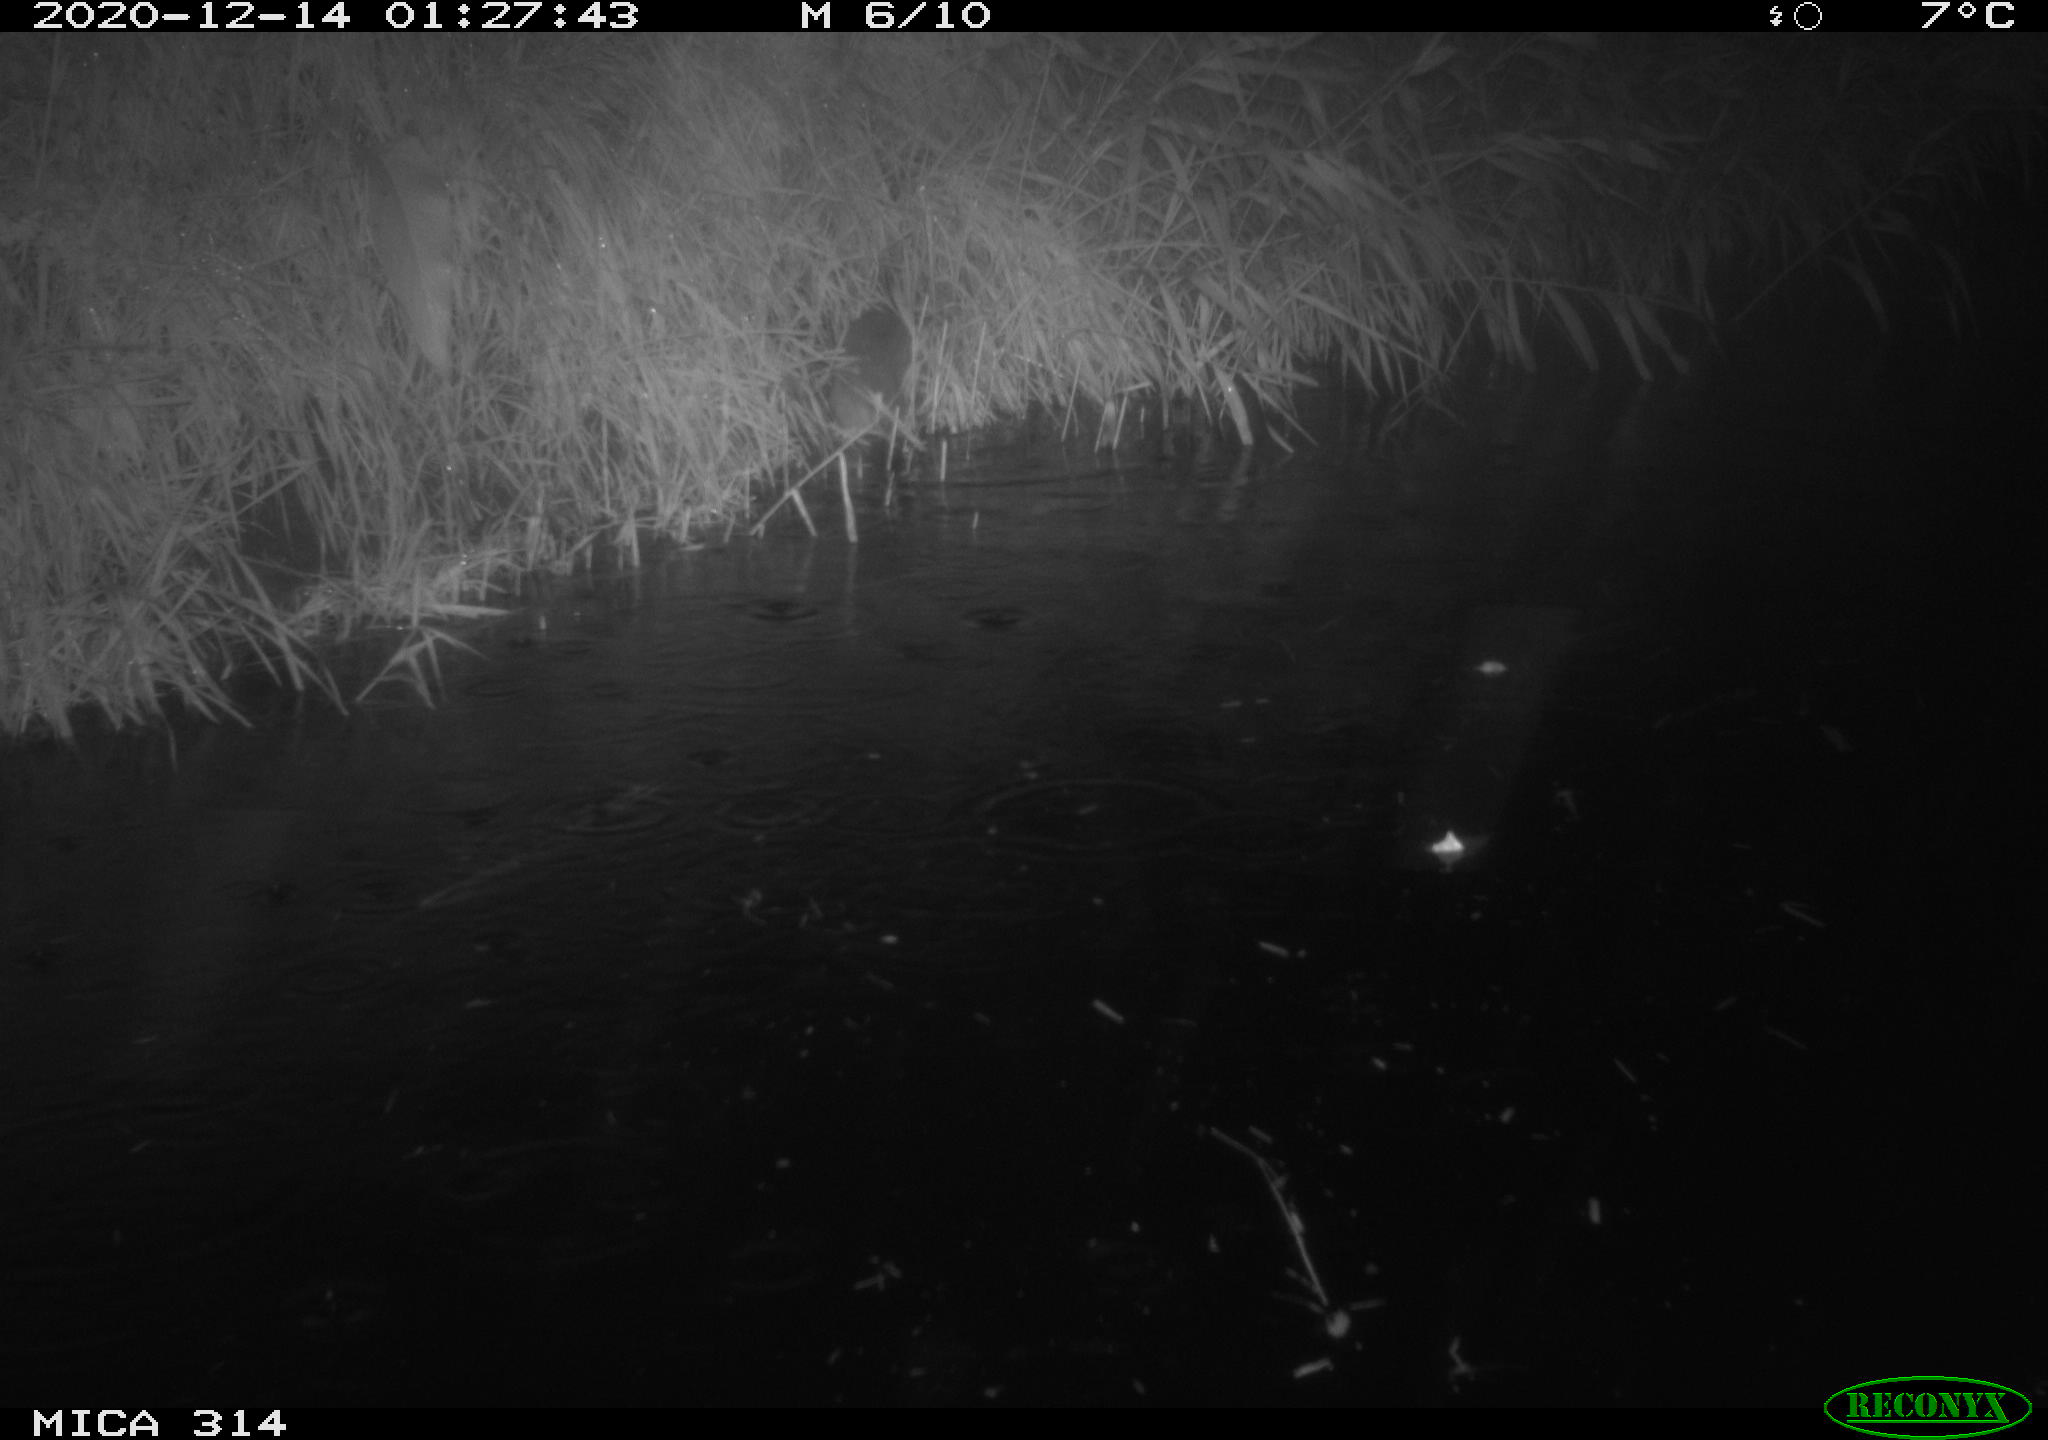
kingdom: Animalia
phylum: Chordata
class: Mammalia
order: Rodentia
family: Muridae
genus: Rattus
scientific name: Rattus norvegicus
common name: Brown rat
